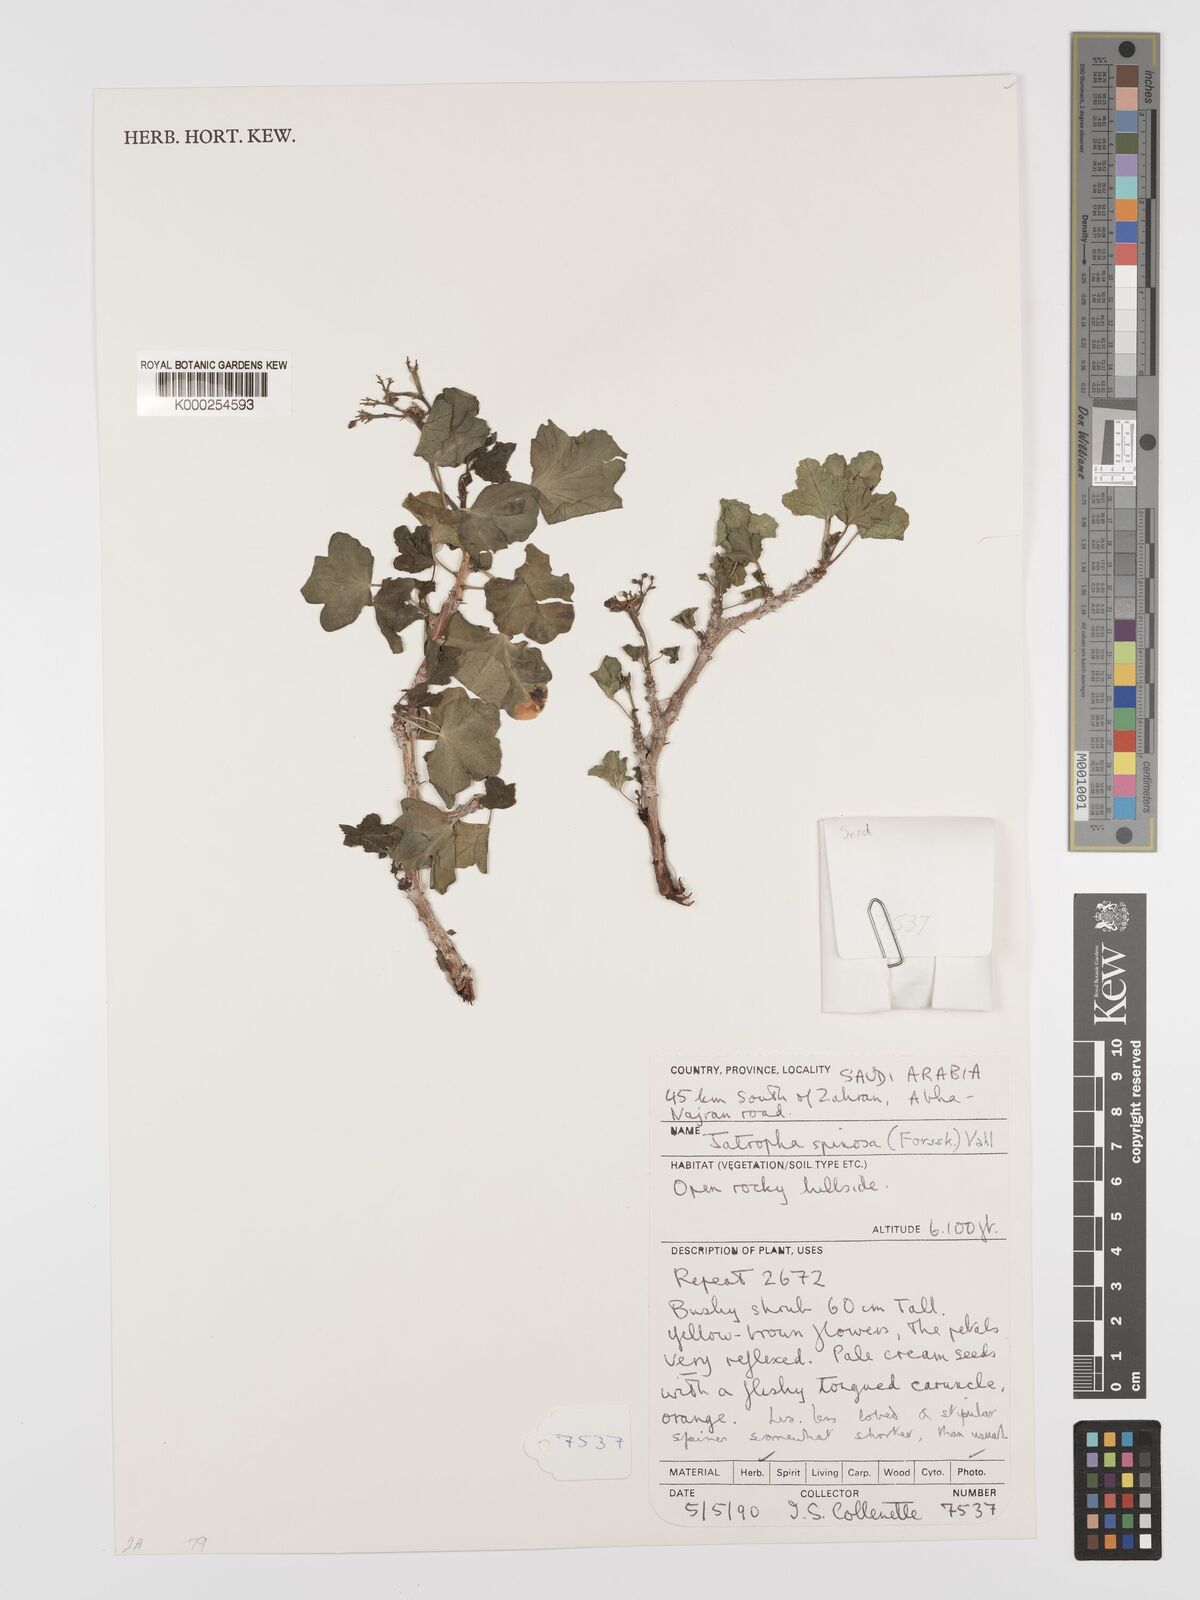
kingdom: Plantae
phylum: Tracheophyta
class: Magnoliopsida
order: Malpighiales
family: Euphorbiaceae
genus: Jatropha
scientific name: Jatropha spinosa
